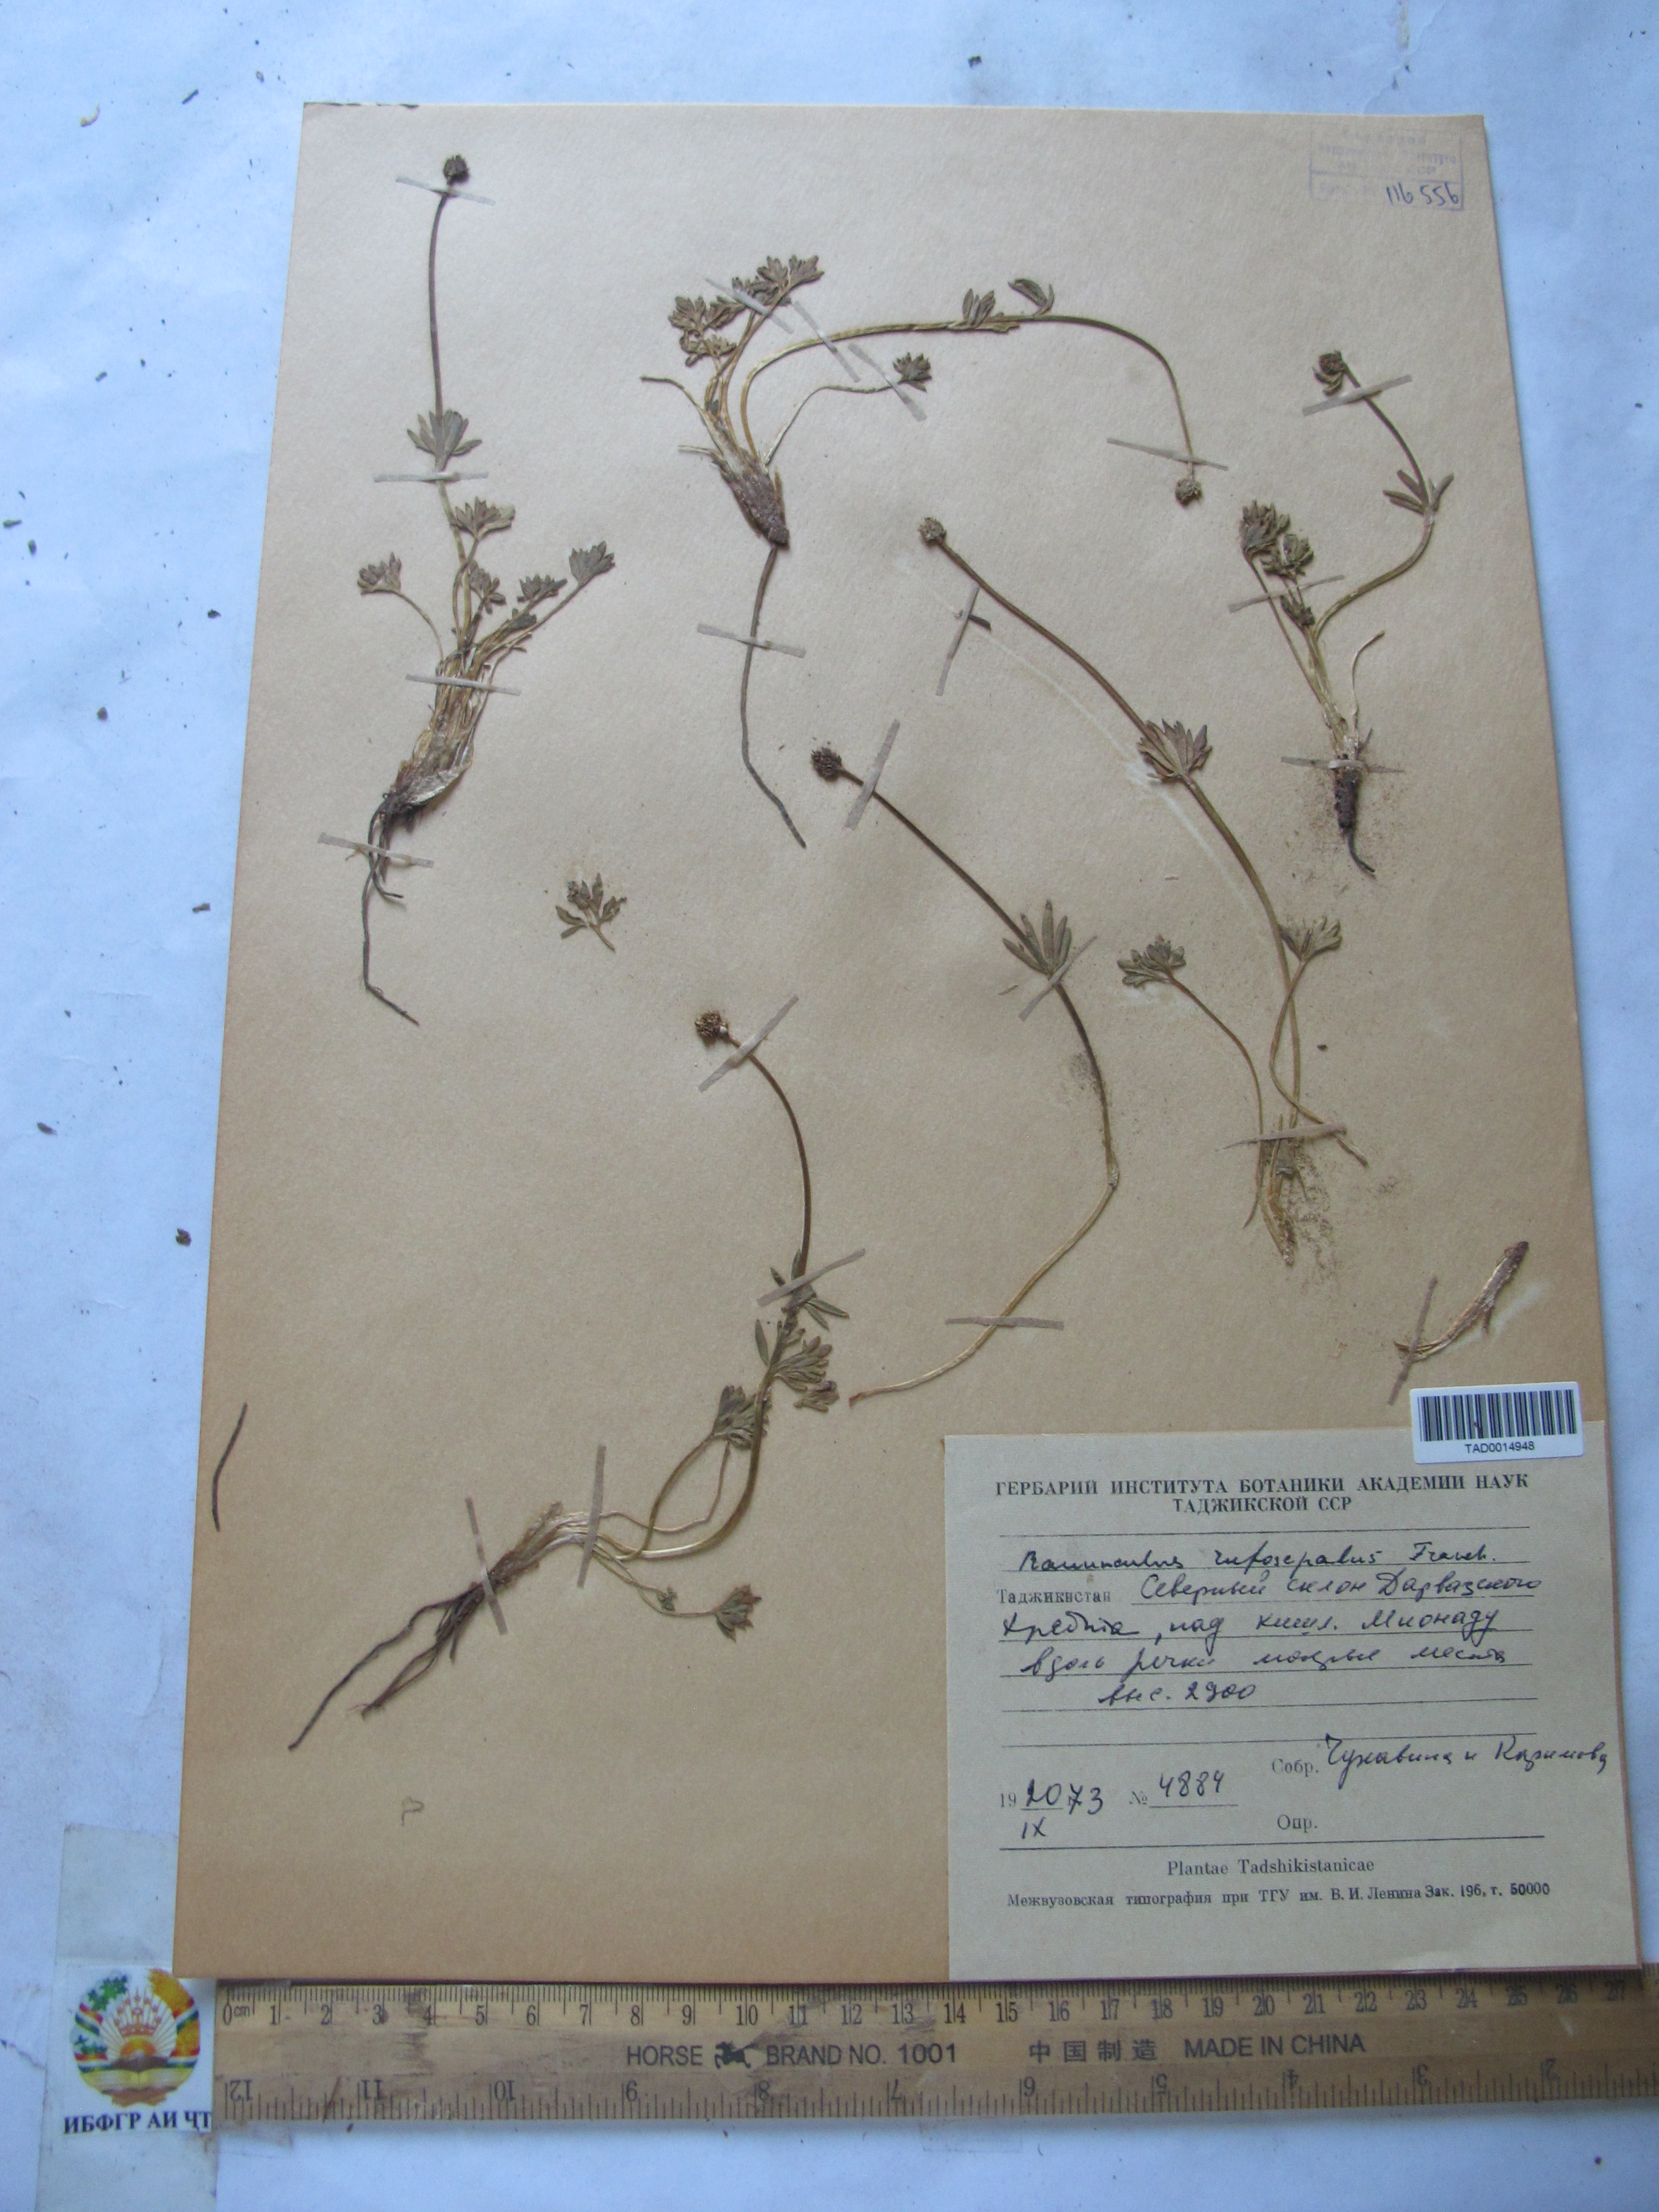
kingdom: Plantae
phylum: Tracheophyta
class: Magnoliopsida
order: Ranunculales
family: Ranunculaceae
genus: Ranunculus
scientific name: Ranunculus rufosepalus
